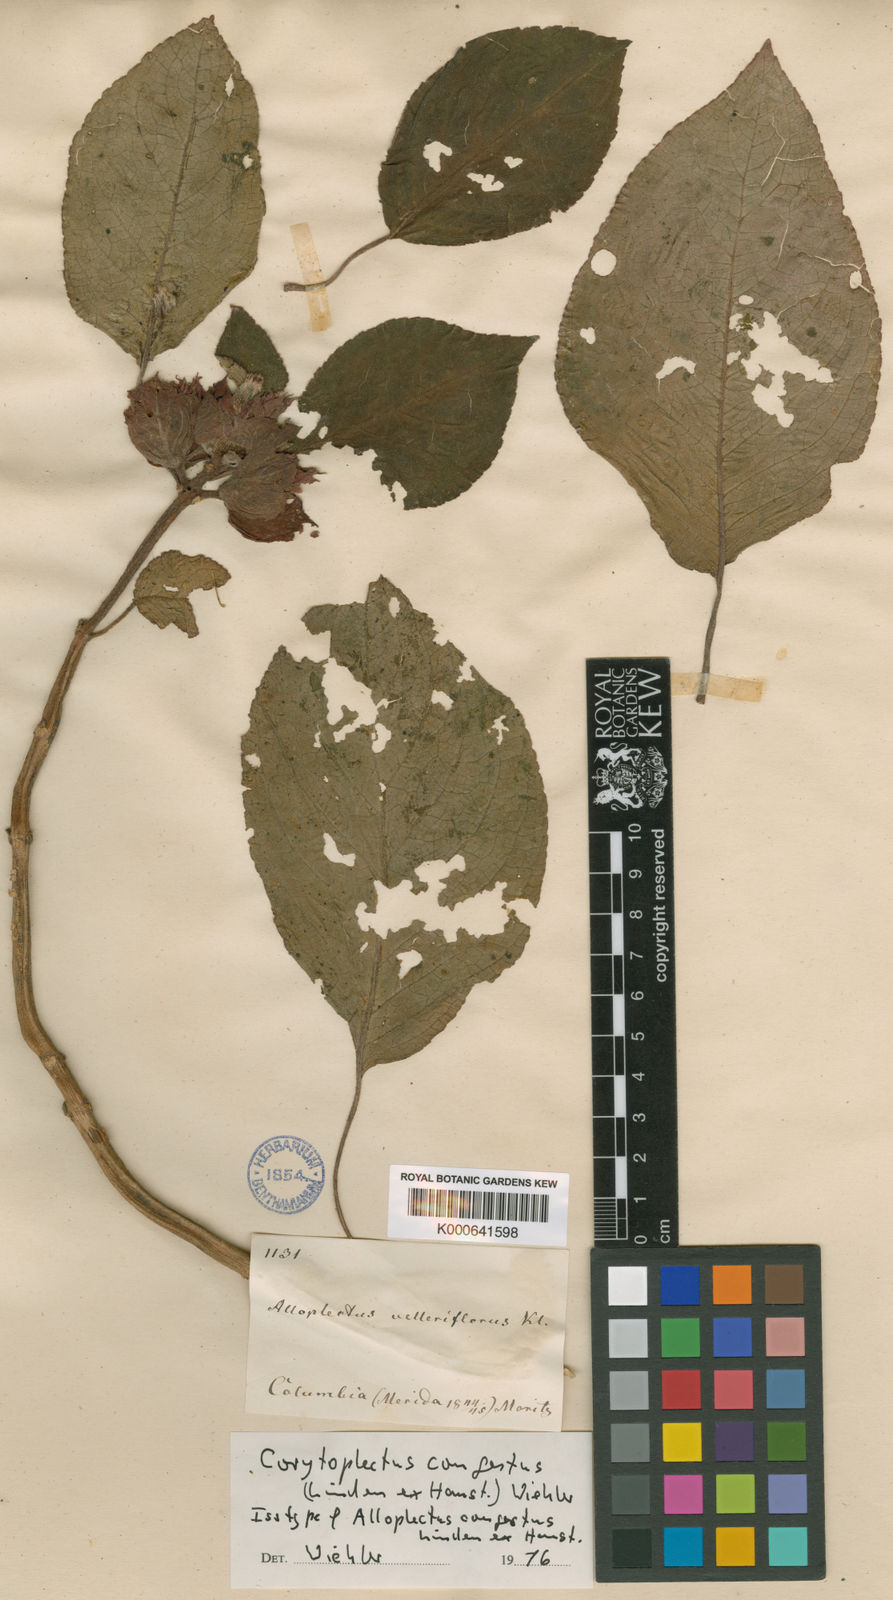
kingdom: Plantae
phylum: Tracheophyta
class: Magnoliopsida
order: Lamiales
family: Gesneriaceae
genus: Corytoplectus
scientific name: Corytoplectus congestus
